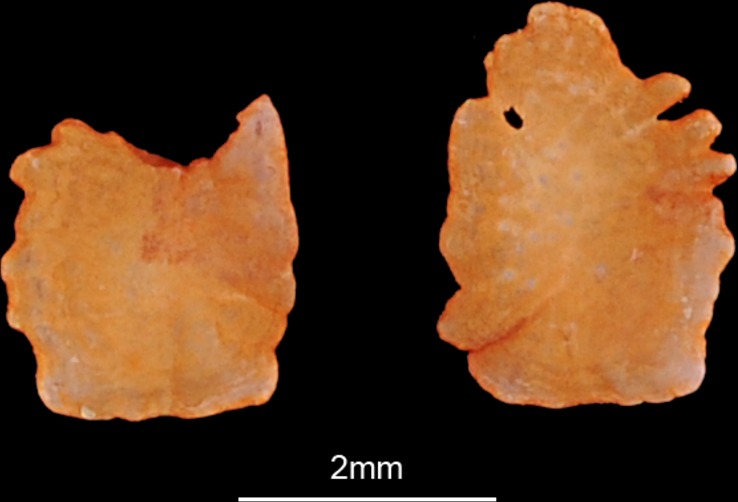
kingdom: Animalia
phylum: Chordata
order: Perciformes
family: Mullidae
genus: Pseudupeneus
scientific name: Pseudupeneus prayensis
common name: West african goatfish
